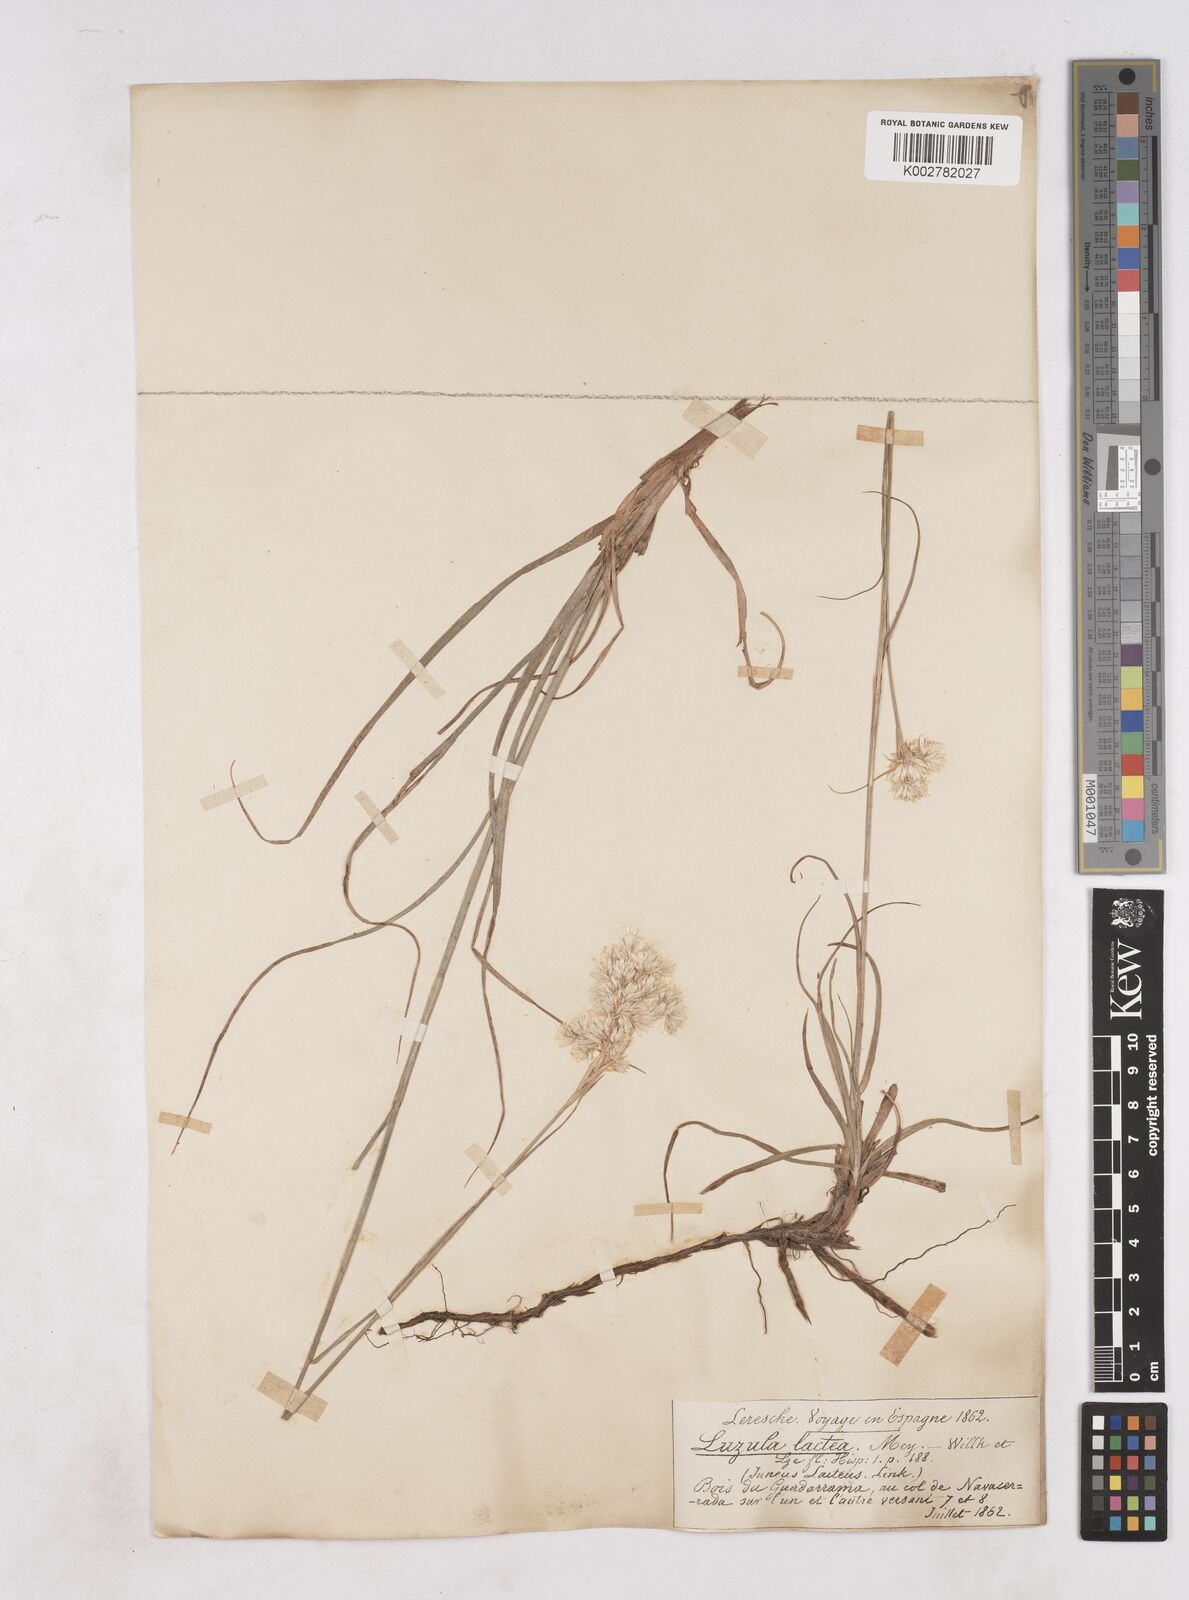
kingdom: Plantae
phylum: Tracheophyta
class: Liliopsida
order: Poales
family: Juncaceae
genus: Luzula
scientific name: Luzula lactea
